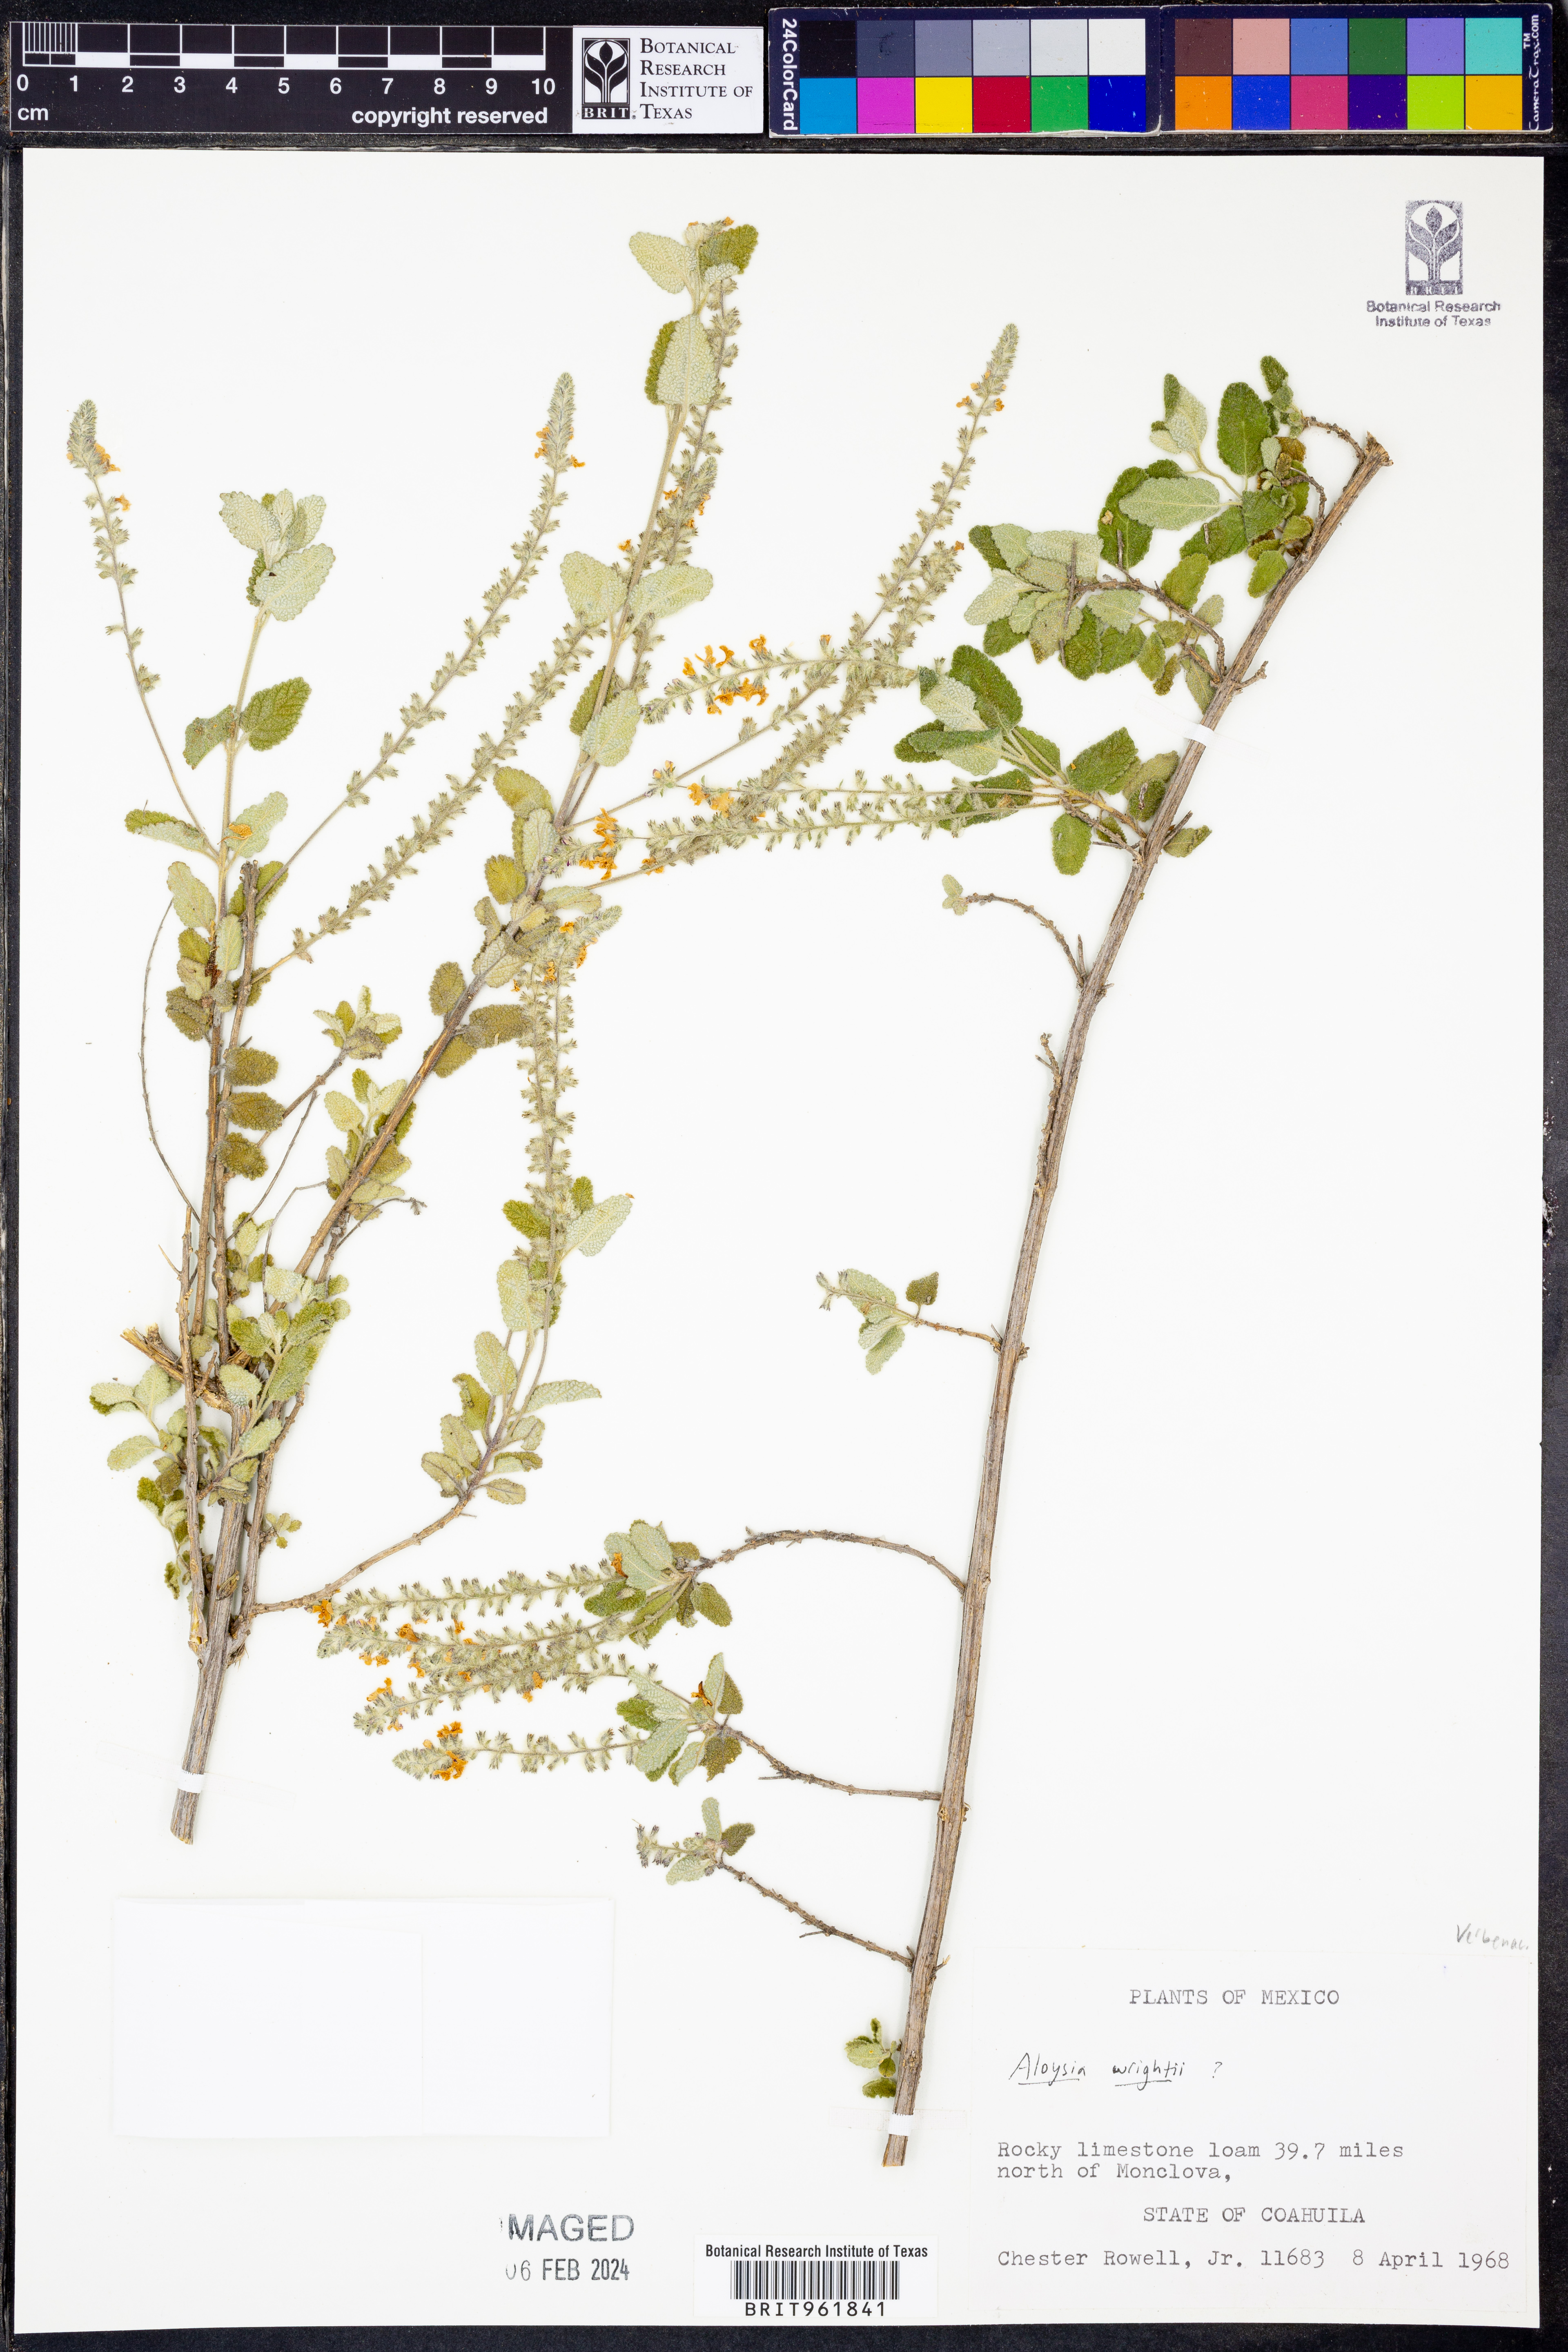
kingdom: Plantae
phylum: Tracheophyta
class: Magnoliopsida
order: Lamiales
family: Verbenaceae
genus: Aloysia
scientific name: Aloysia
